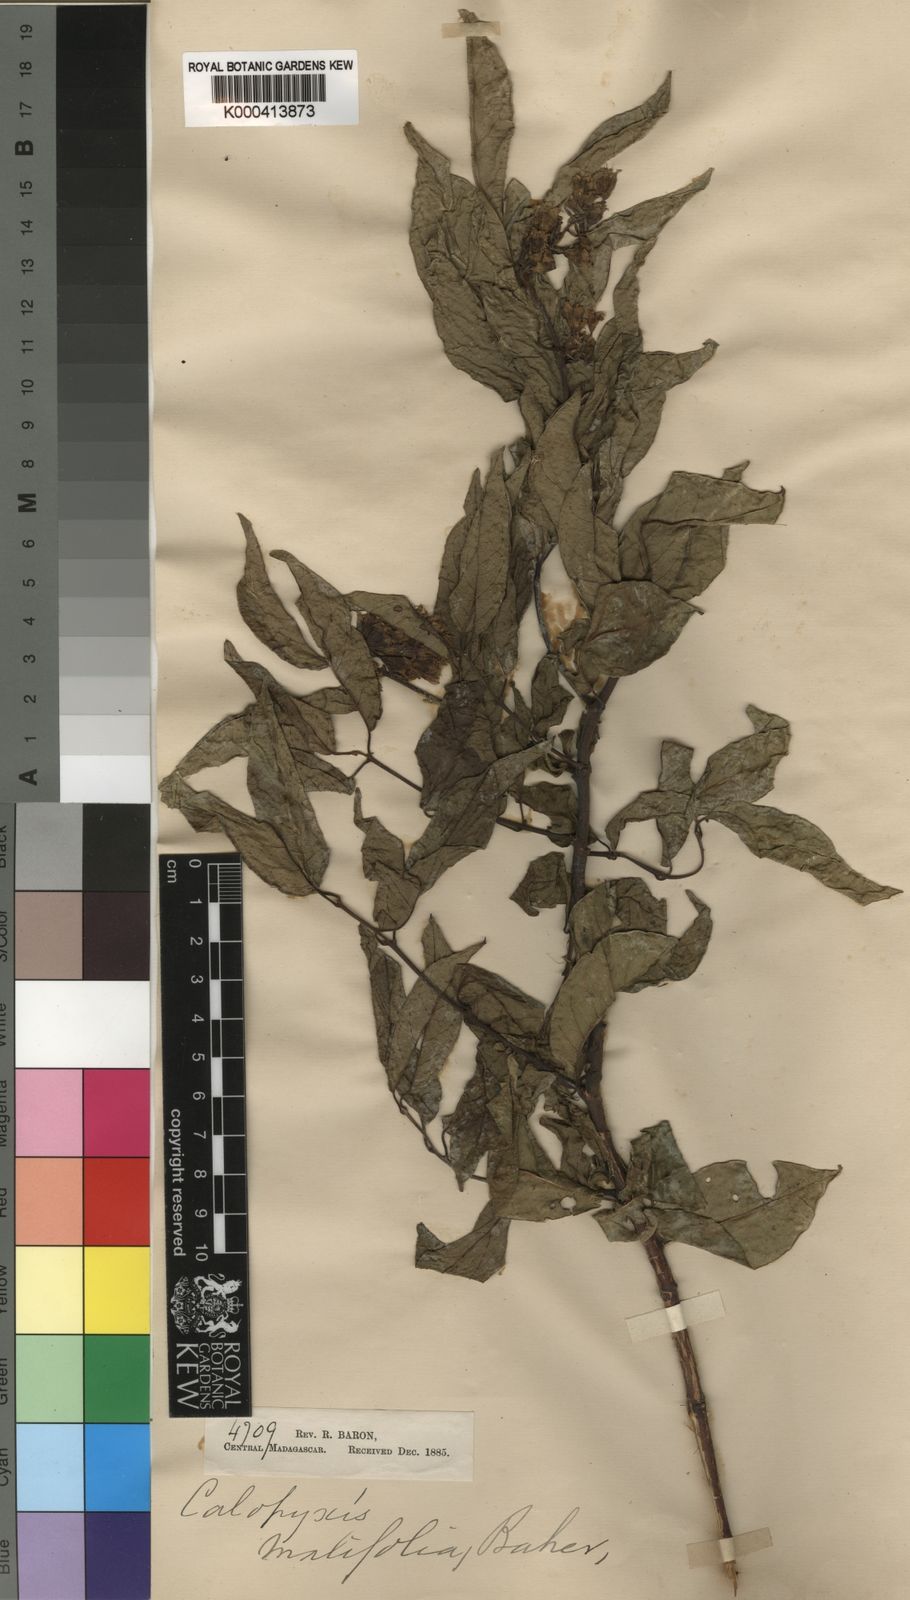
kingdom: Plantae
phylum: Tracheophyta
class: Magnoliopsida
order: Myrtales
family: Combretaceae
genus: Combretum
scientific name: Combretum malifolium
